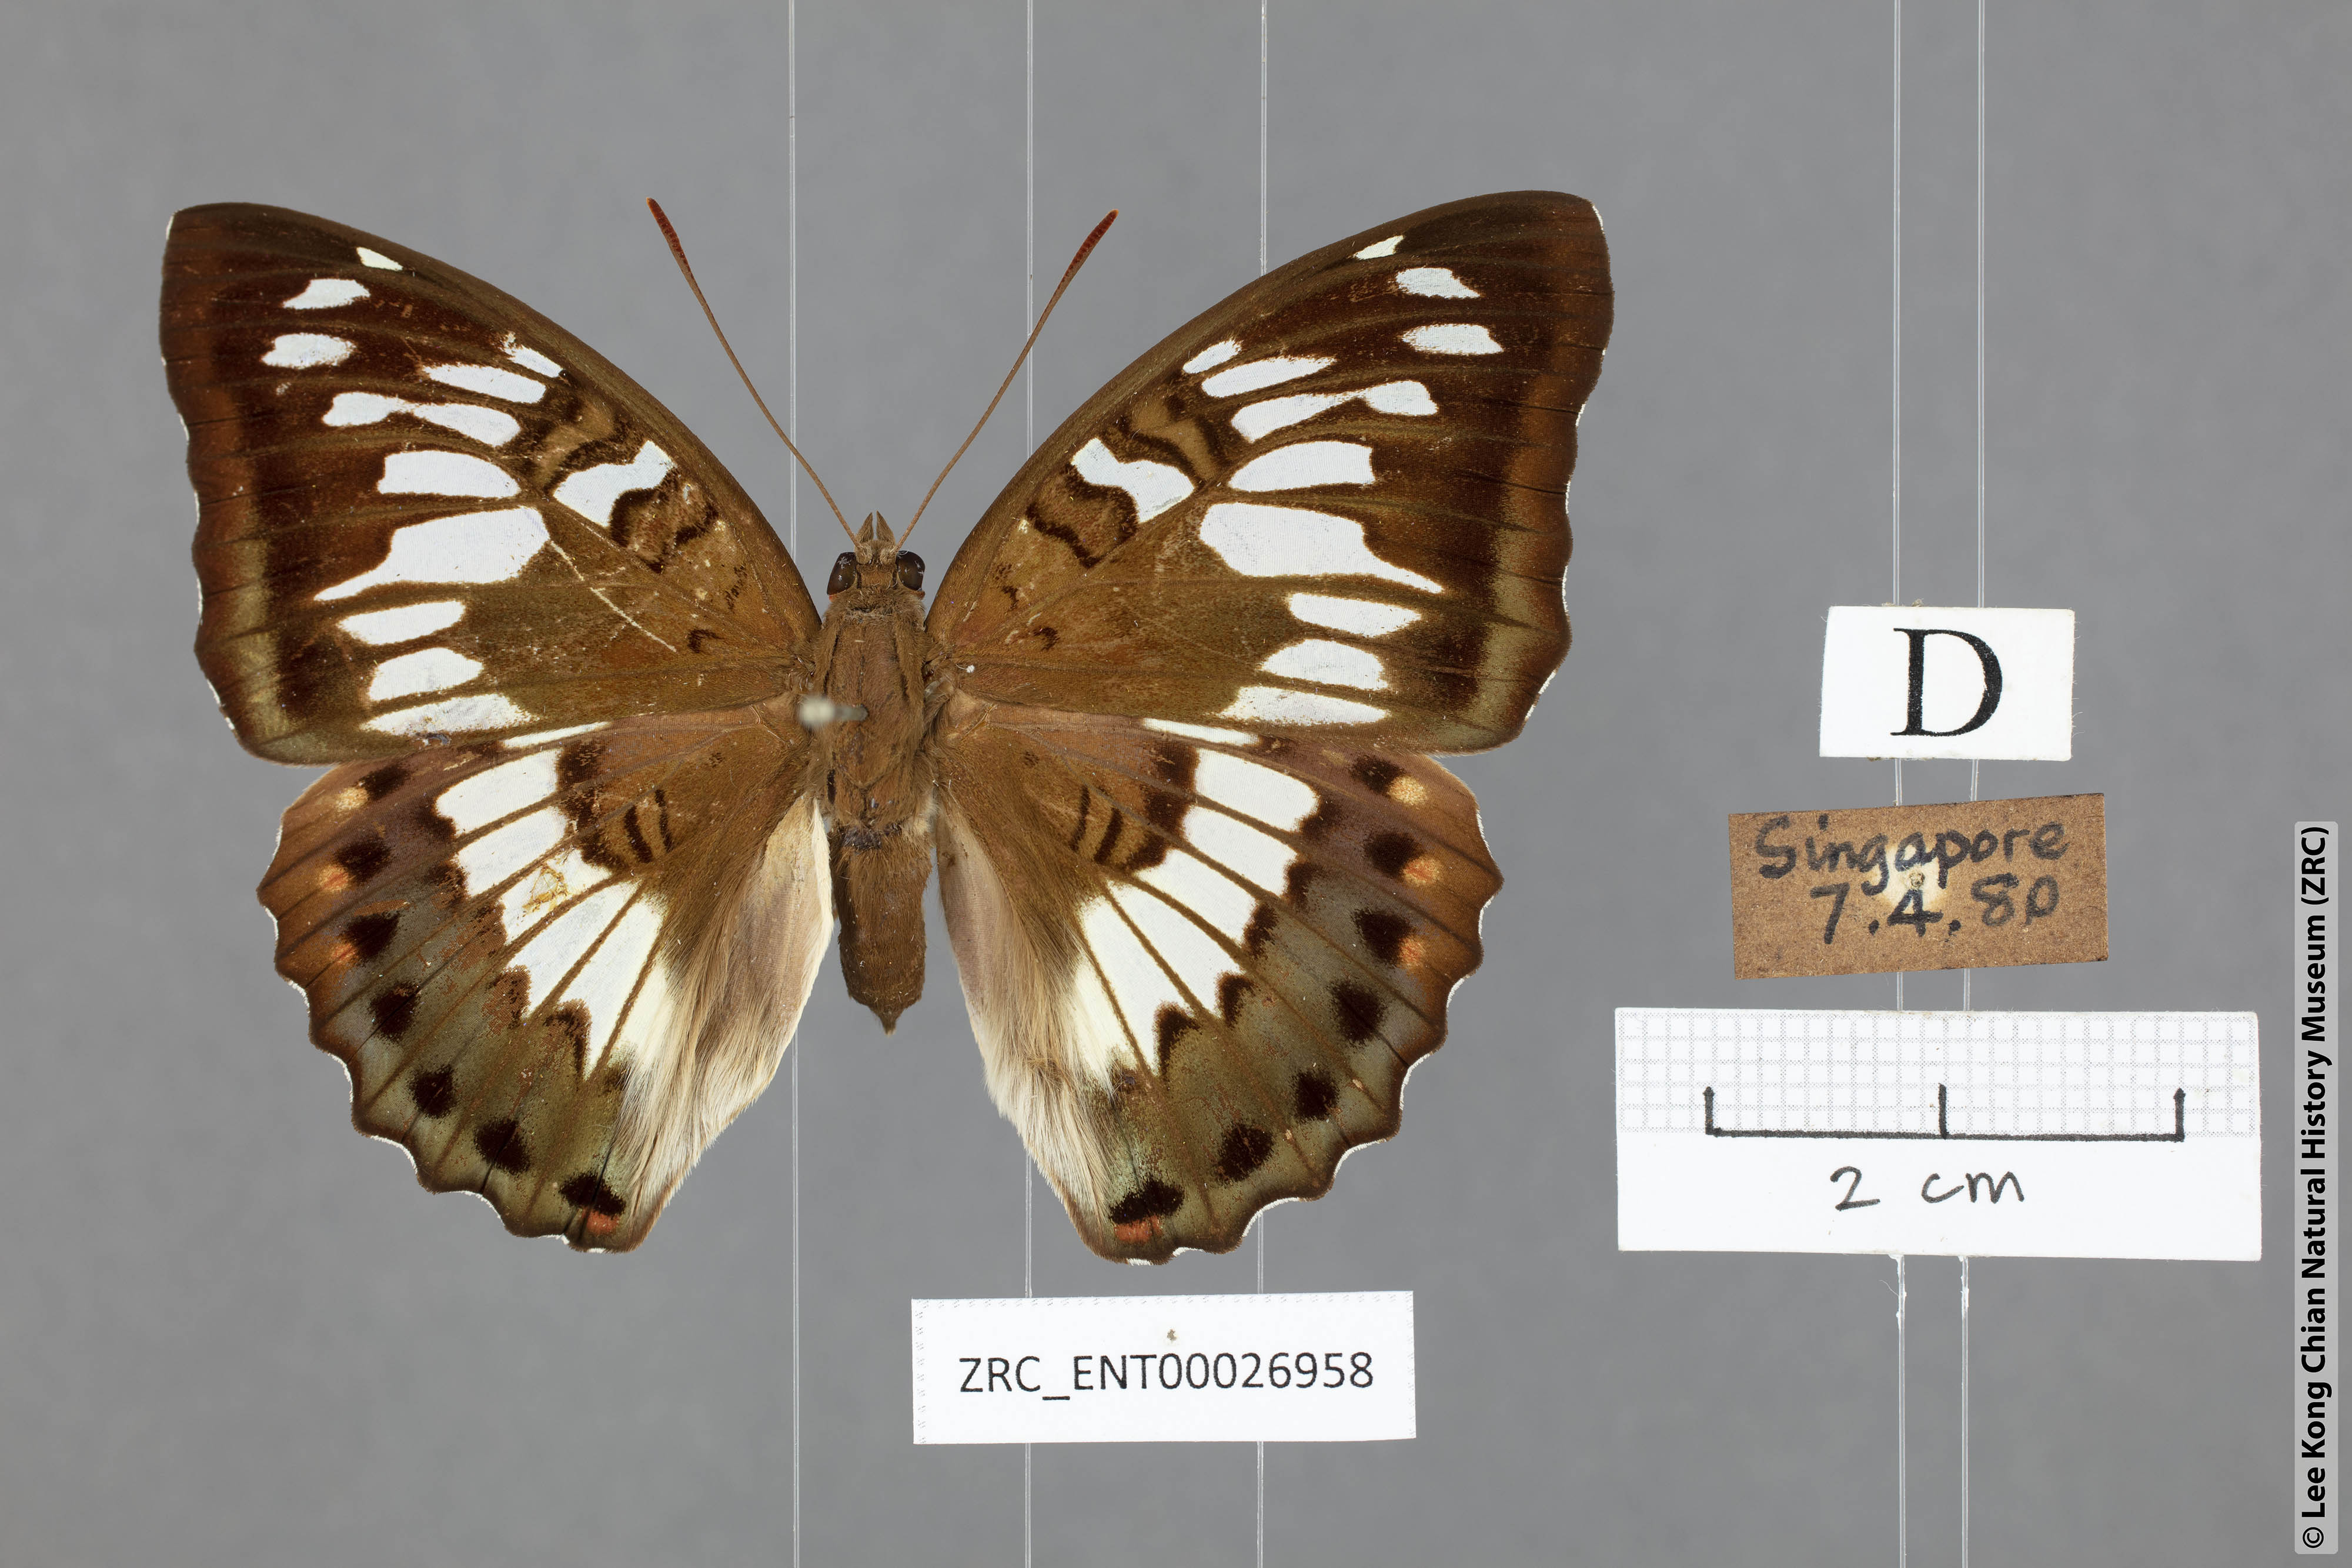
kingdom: Animalia
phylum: Arthropoda
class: Insecta
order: Lepidoptera
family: Nymphalidae
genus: Euthalia
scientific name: Euthalia adonia
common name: Green baron
